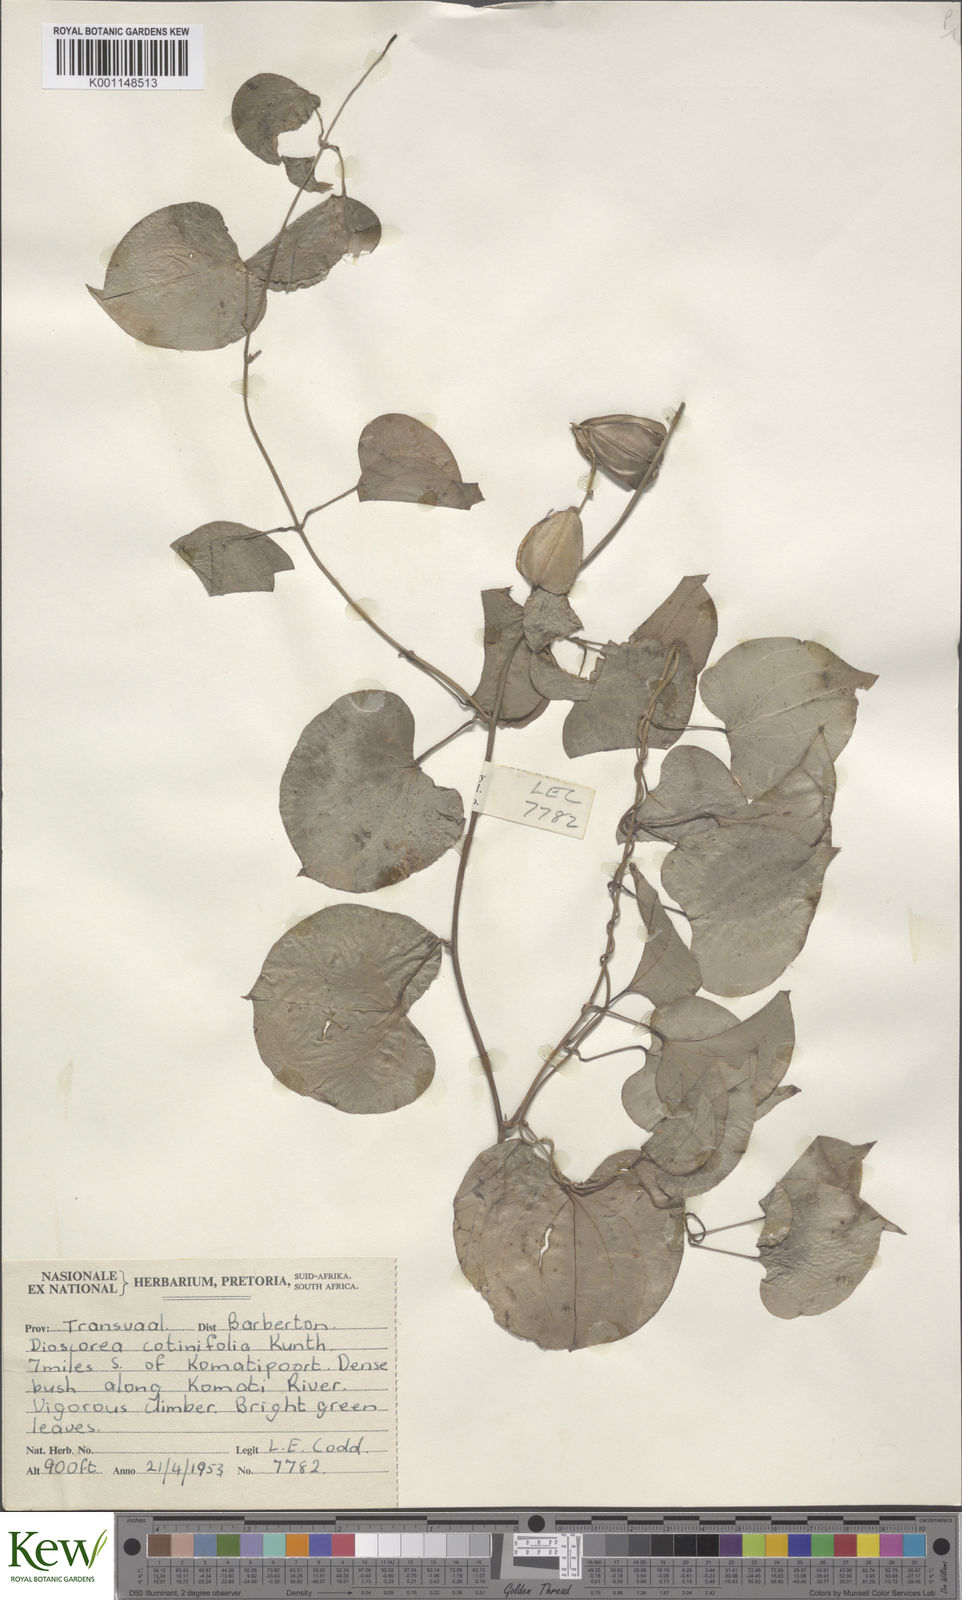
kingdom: Plantae
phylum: Tracheophyta
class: Liliopsida
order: Dioscoreales
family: Dioscoreaceae
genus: Dioscorea
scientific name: Dioscorea cotinifolia
